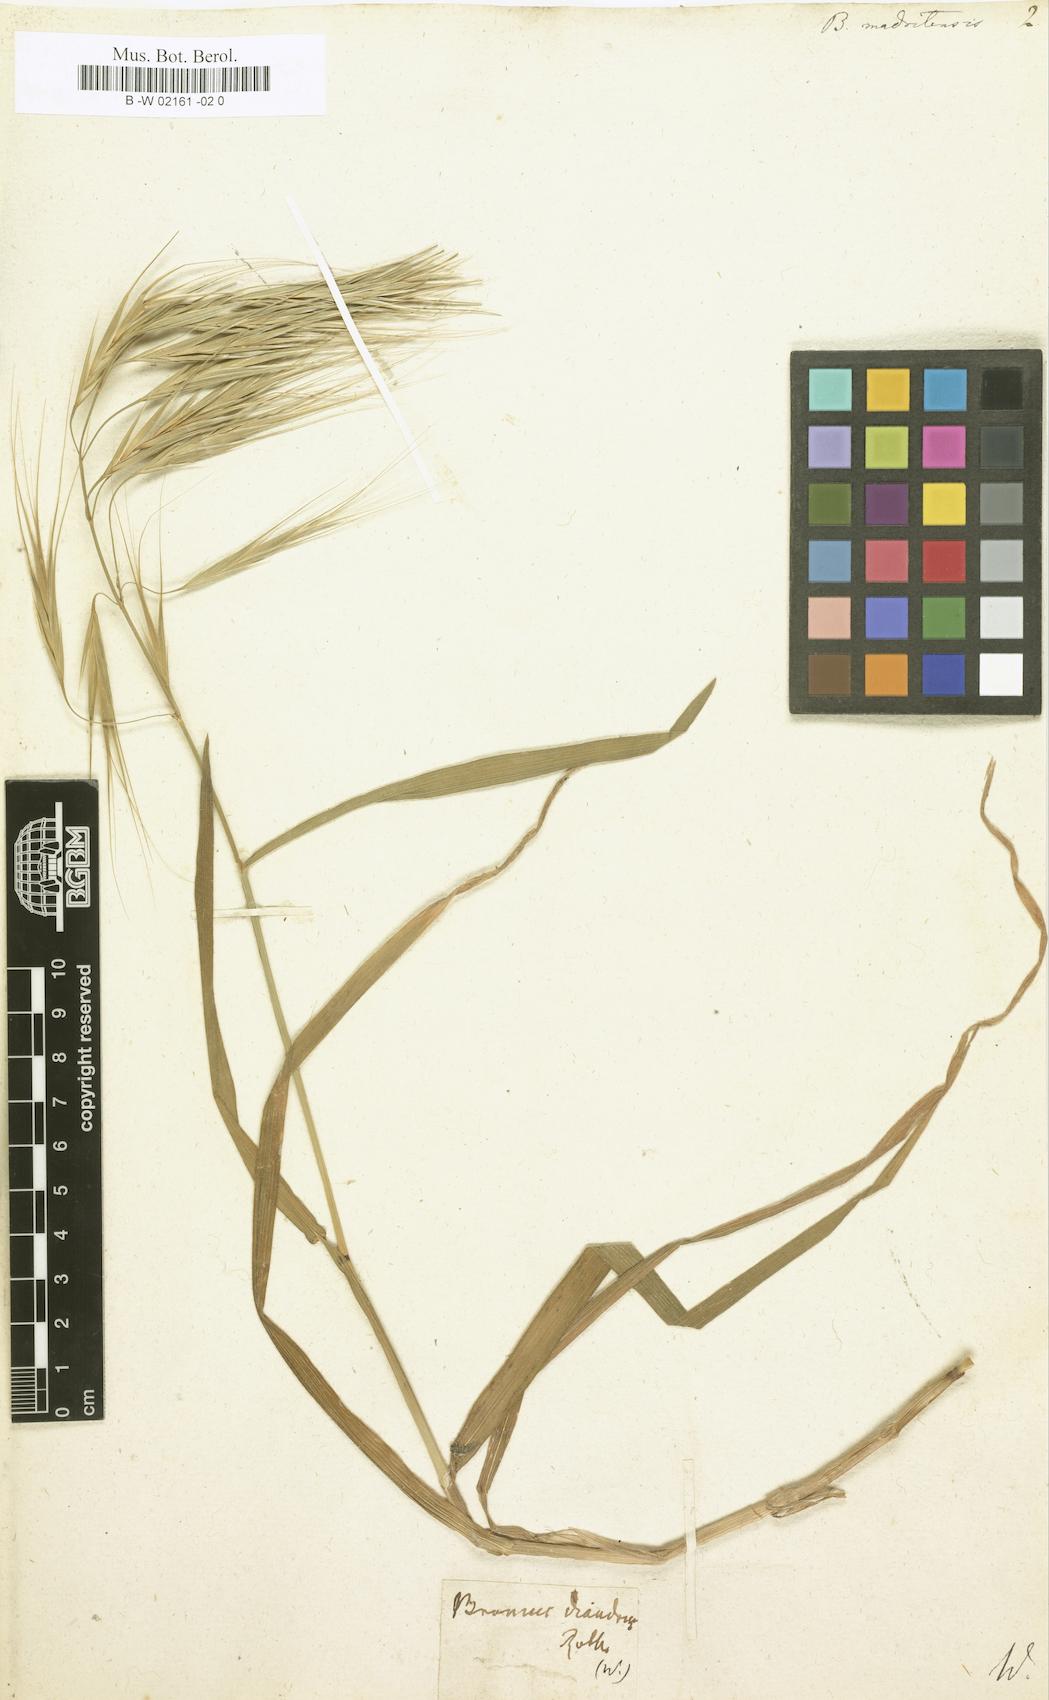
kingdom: Plantae
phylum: Tracheophyta
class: Liliopsida
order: Poales
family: Poaceae
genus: Bromus
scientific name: Bromus madritensis
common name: Compact brome
